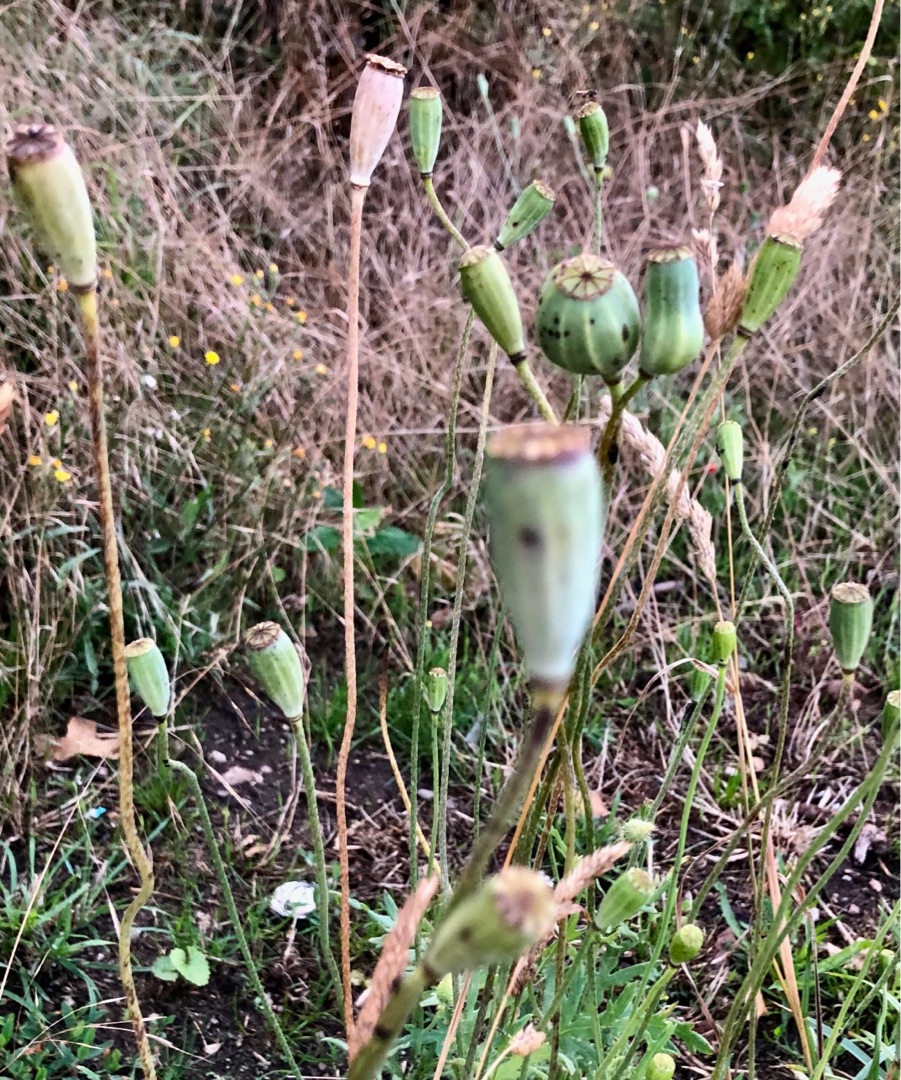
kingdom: Plantae
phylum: Tracheophyta
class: Magnoliopsida
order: Ranunculales
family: Papaveraceae
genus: Papaver
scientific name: Papaver dubium
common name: Gærde-valmue
